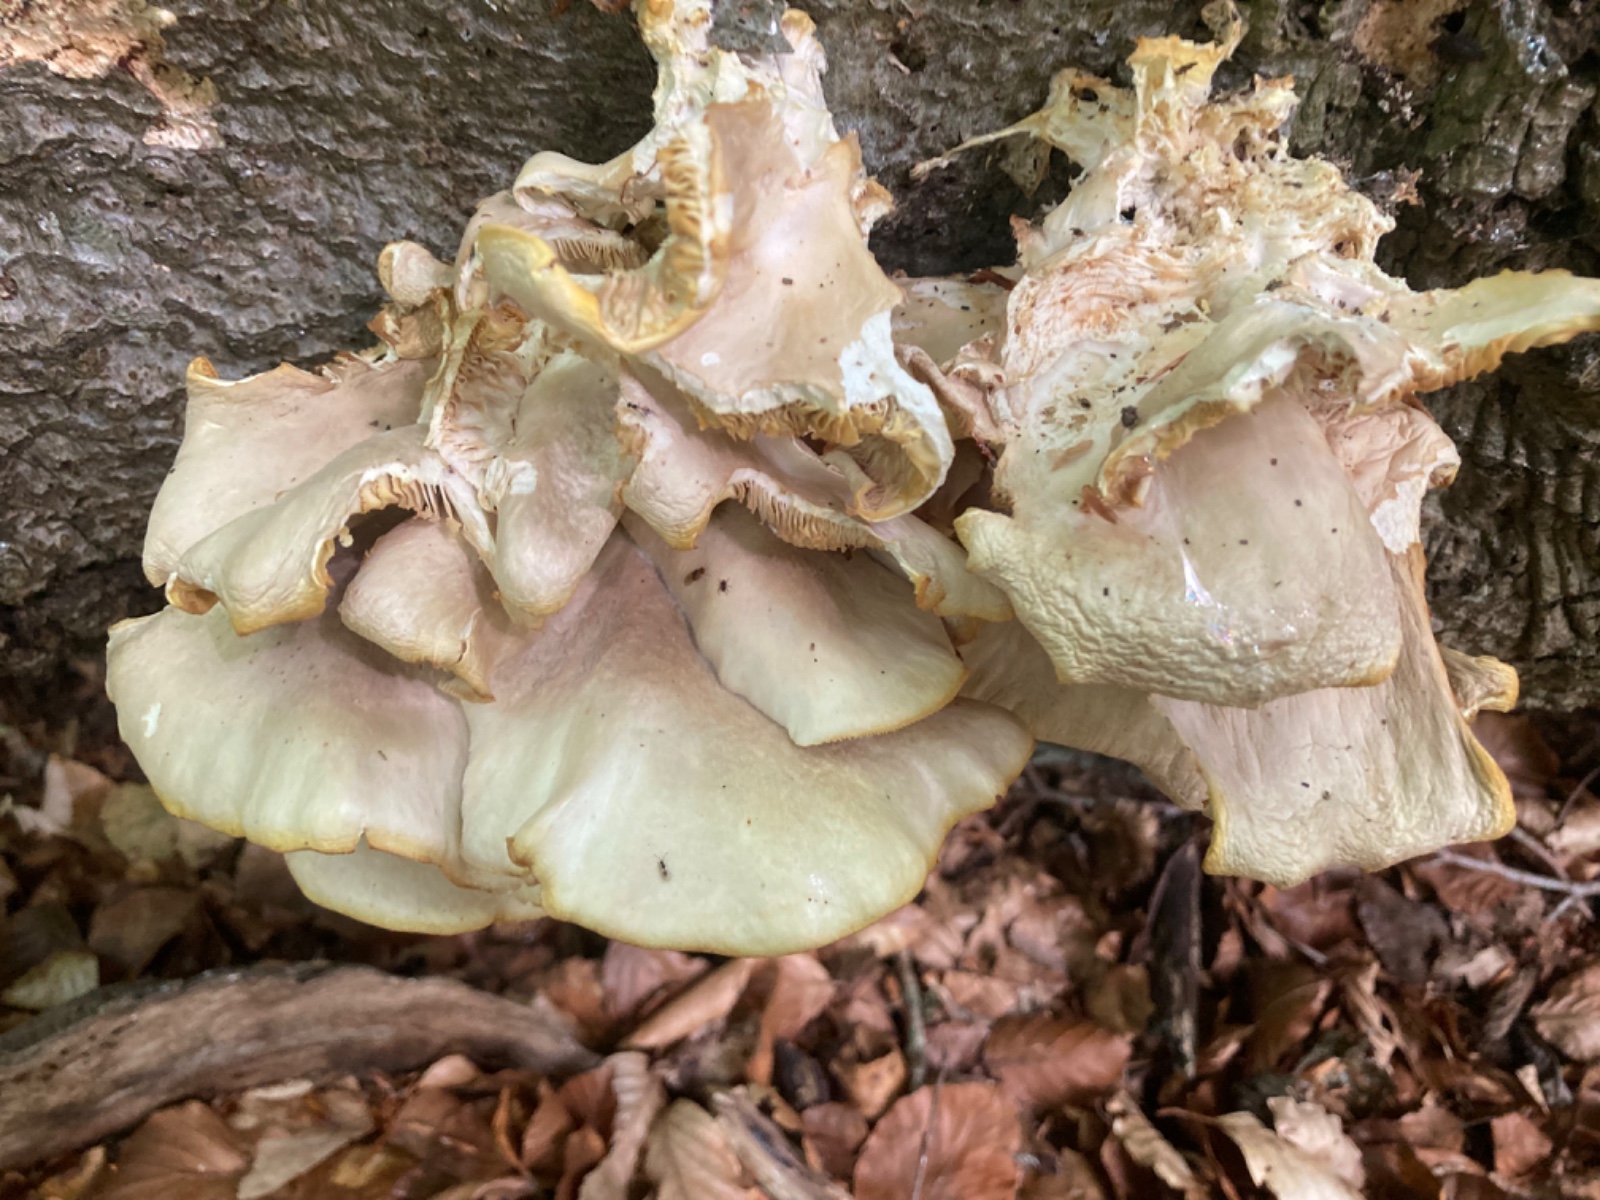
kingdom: Fungi
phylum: Basidiomycota
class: Agaricomycetes
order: Agaricales
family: Pleurotaceae
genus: Pleurotus
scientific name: Pleurotus pulmonarius
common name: sommer-østershat
